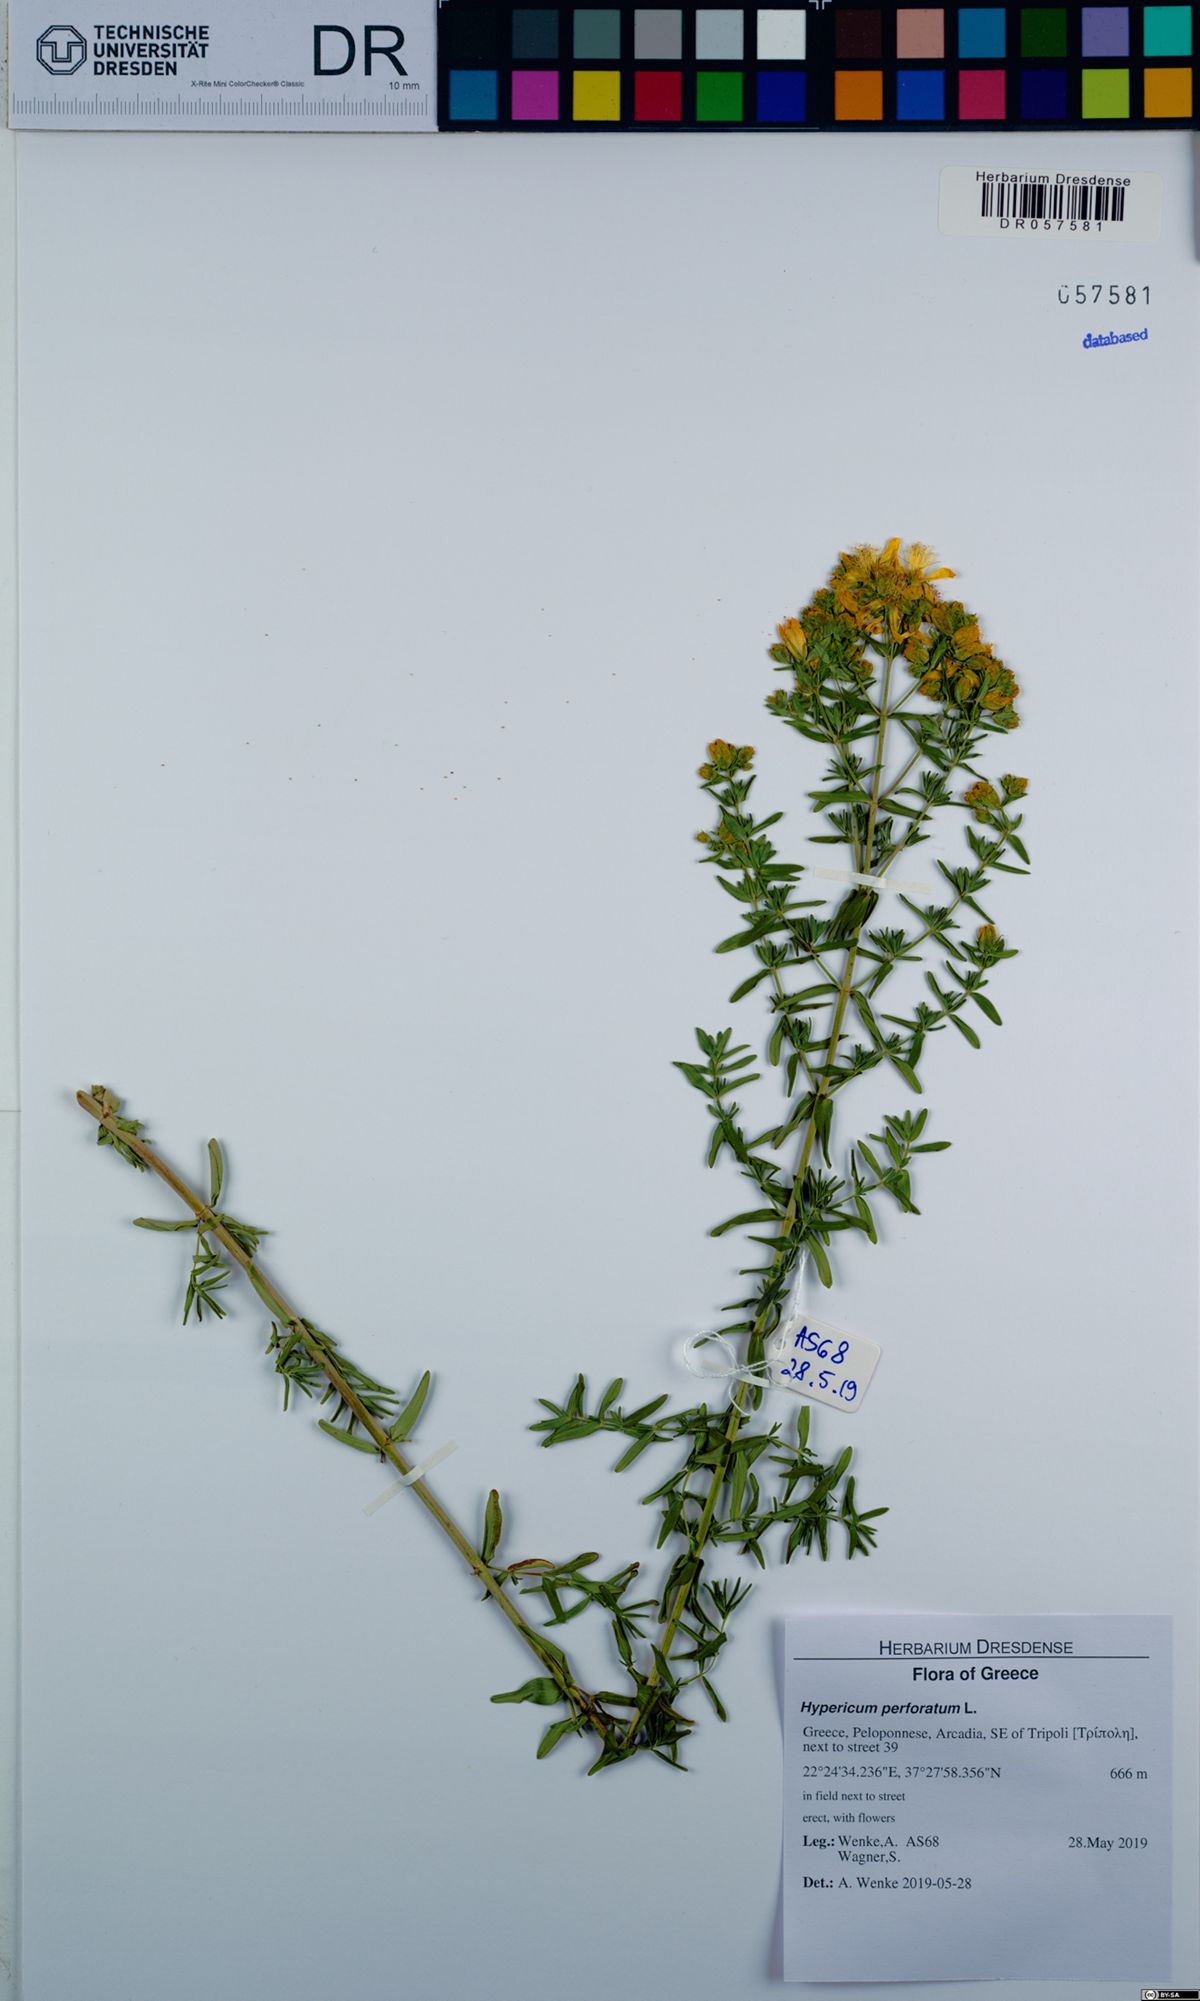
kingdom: Plantae
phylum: Tracheophyta
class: Magnoliopsida
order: Malpighiales
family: Hypericaceae
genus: Hypericum
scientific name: Hypericum perforatum
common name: Common st. johnswort
